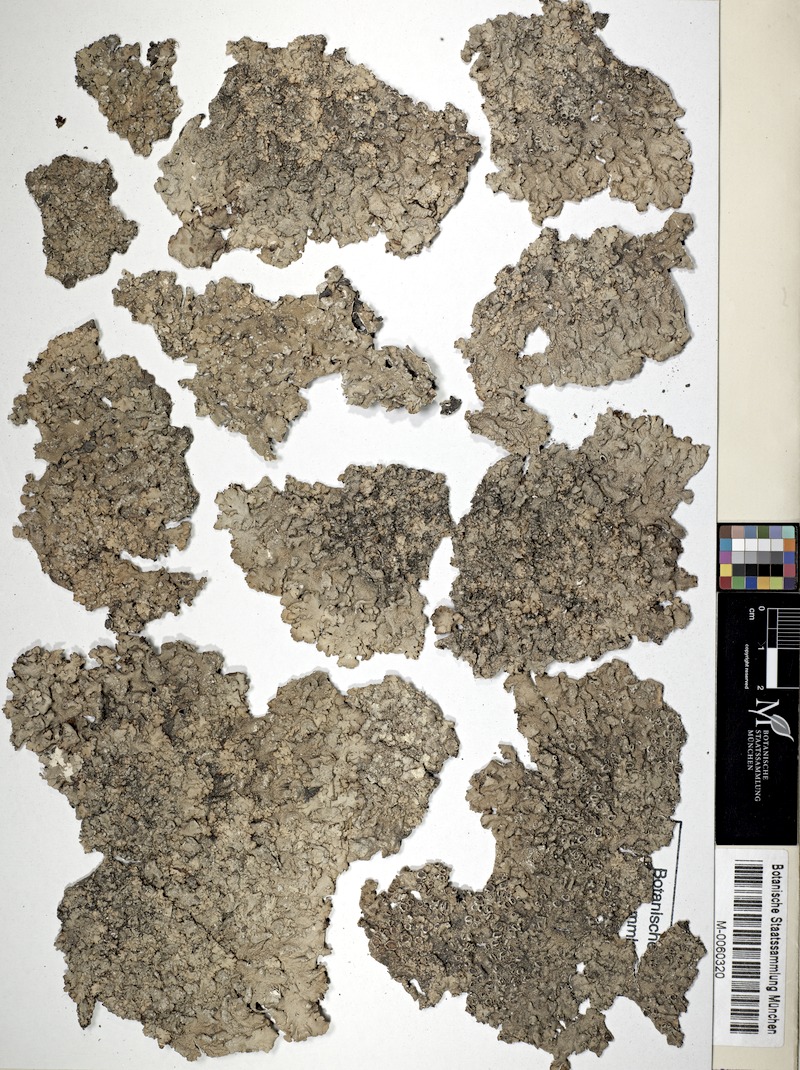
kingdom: Fungi
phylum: Ascomycota
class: Lecanoromycetes
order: Lecanorales
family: Parmeliaceae
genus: Canoparmelia
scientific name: Canoparmelia aptata
